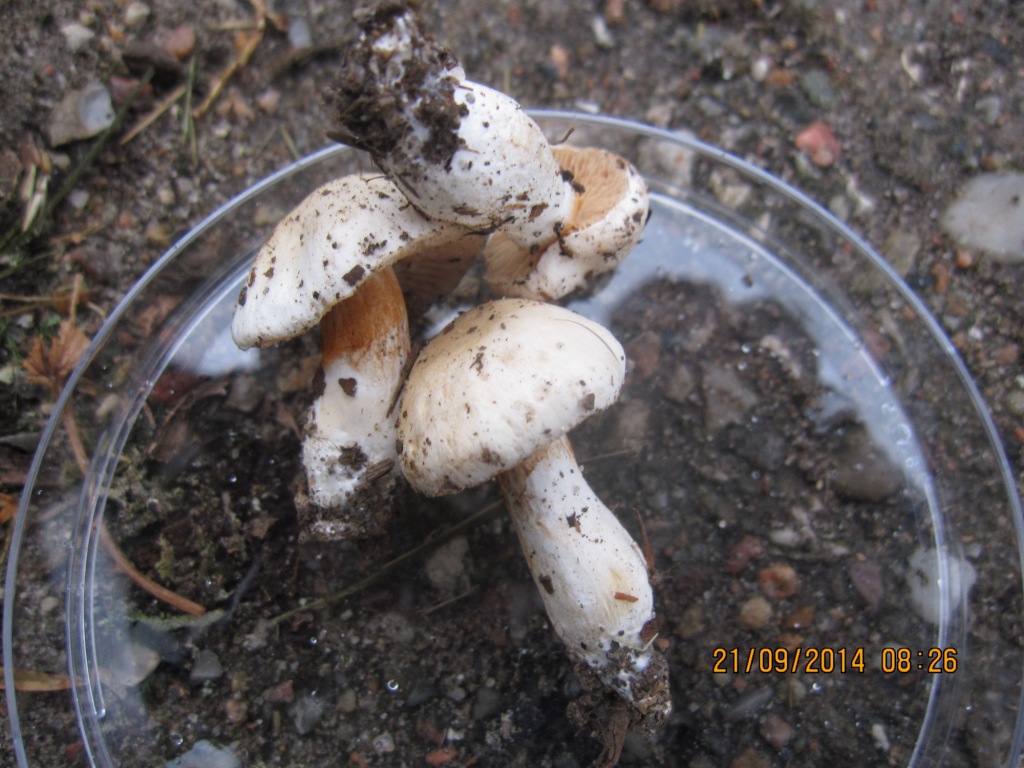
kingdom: Fungi
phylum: Basidiomycota
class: Agaricomycetes
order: Agaricales
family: Cortinariaceae
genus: Thaxterogaster
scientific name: Thaxterogaster barbatus
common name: elfenbens-slørhat
